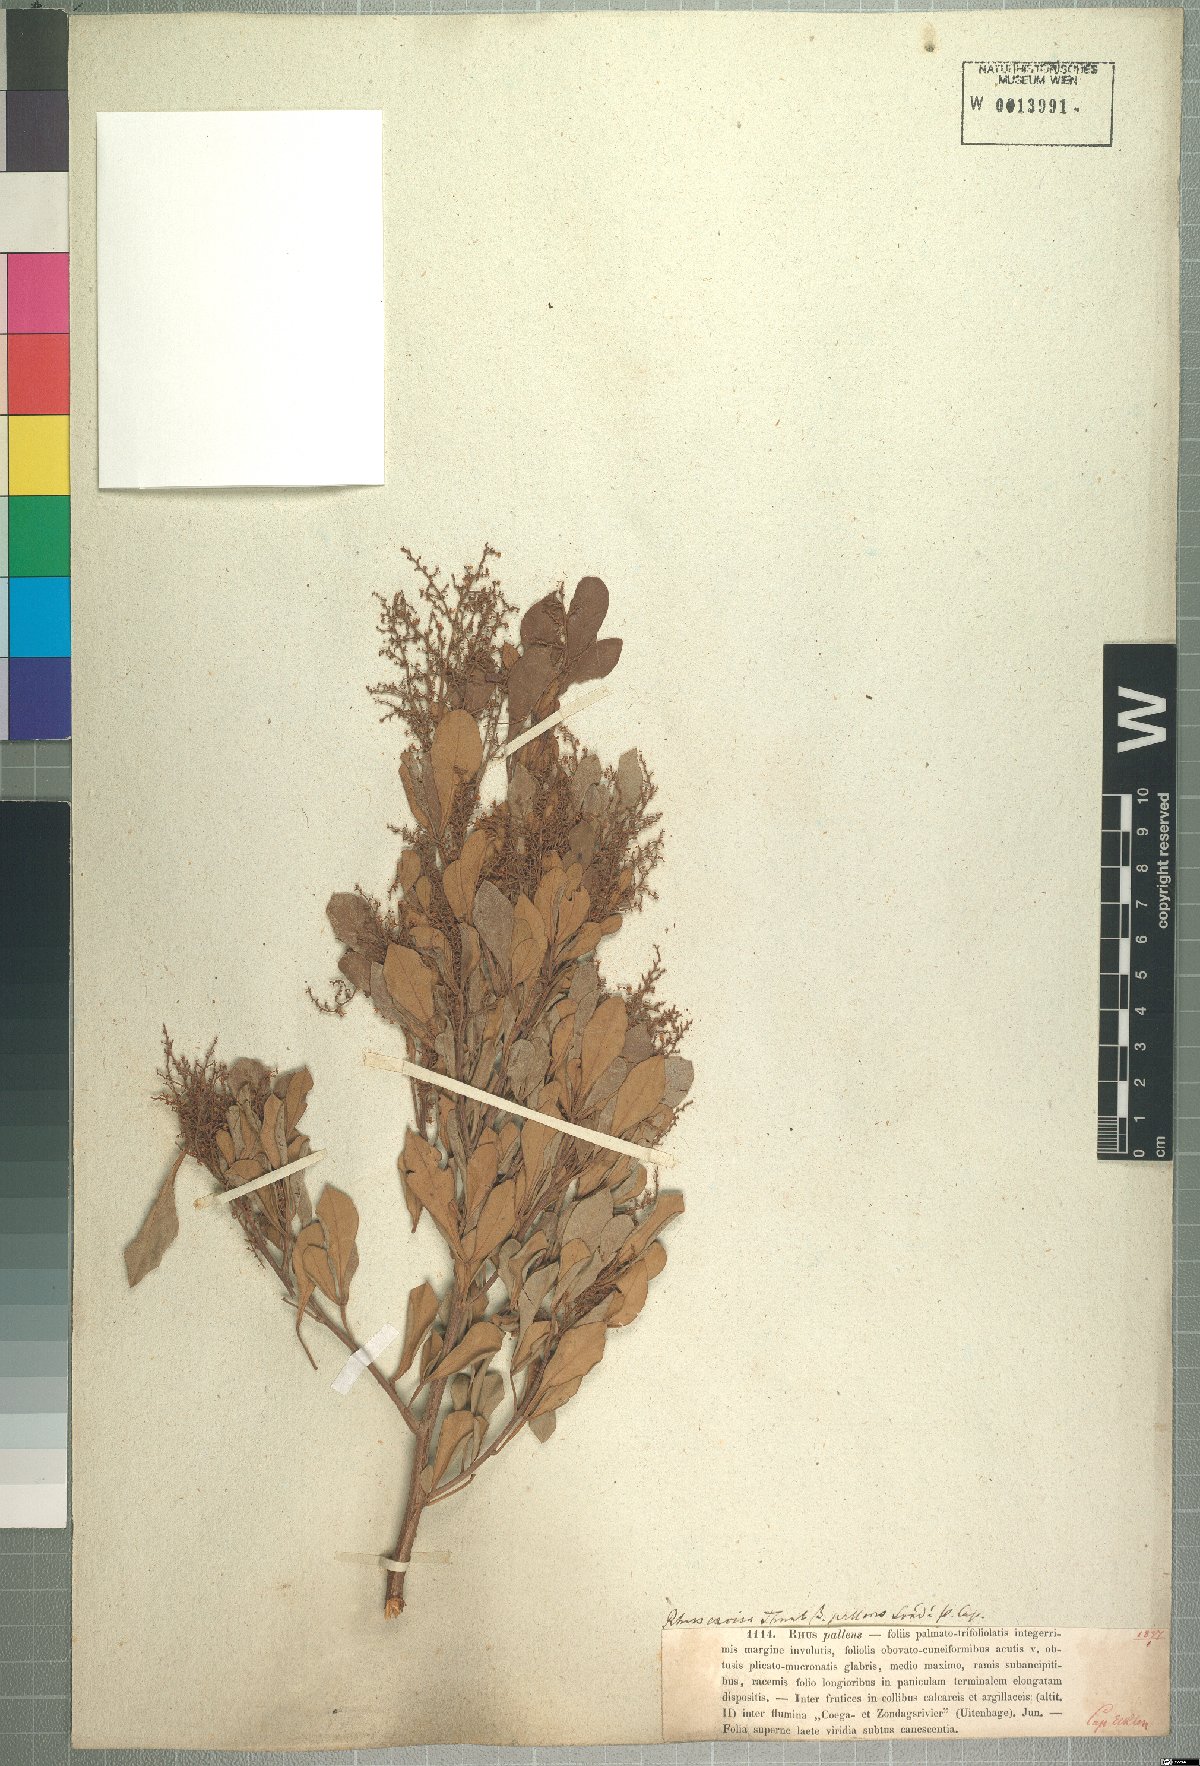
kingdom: Plantae
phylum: Tracheophyta
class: Magnoliopsida
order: Sapindales
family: Anacardiaceae
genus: Searsia
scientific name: Searsia pallens
